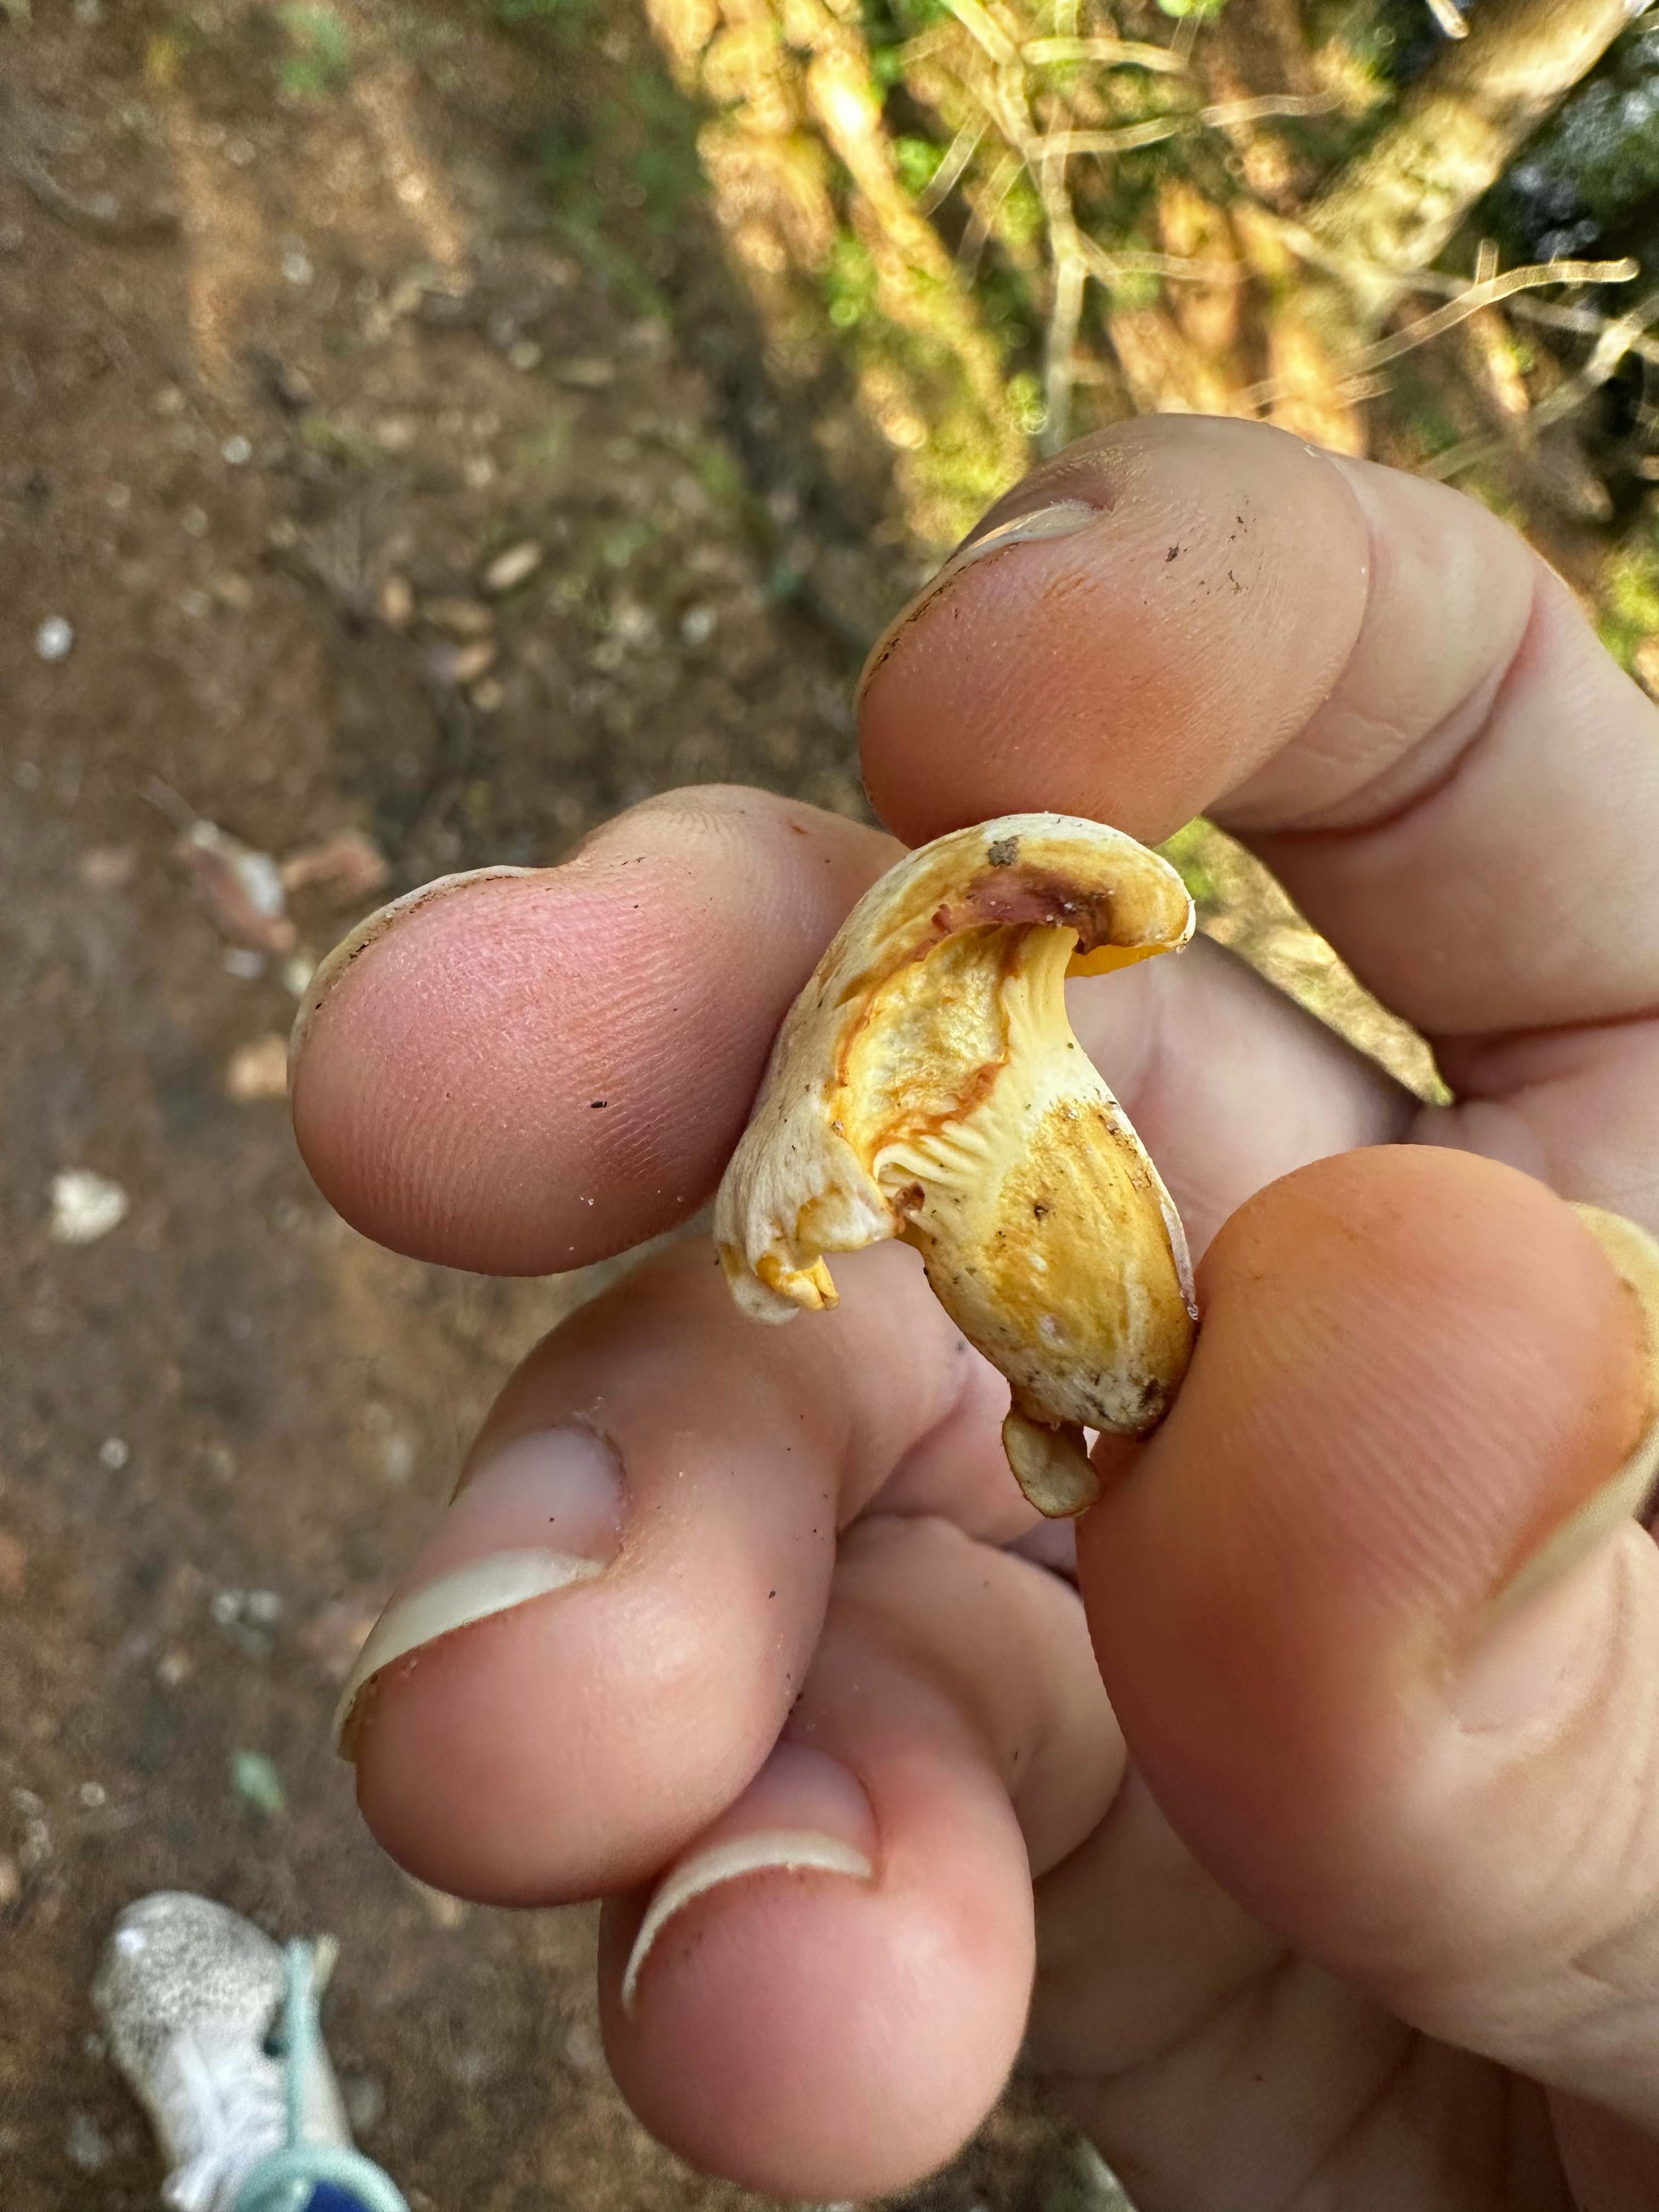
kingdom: Fungi
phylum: Basidiomycota
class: Agaricomycetes
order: Cantharellales
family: Hydnaceae
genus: Cantharellus
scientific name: Cantharellus pallens
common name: bleg kantarel
